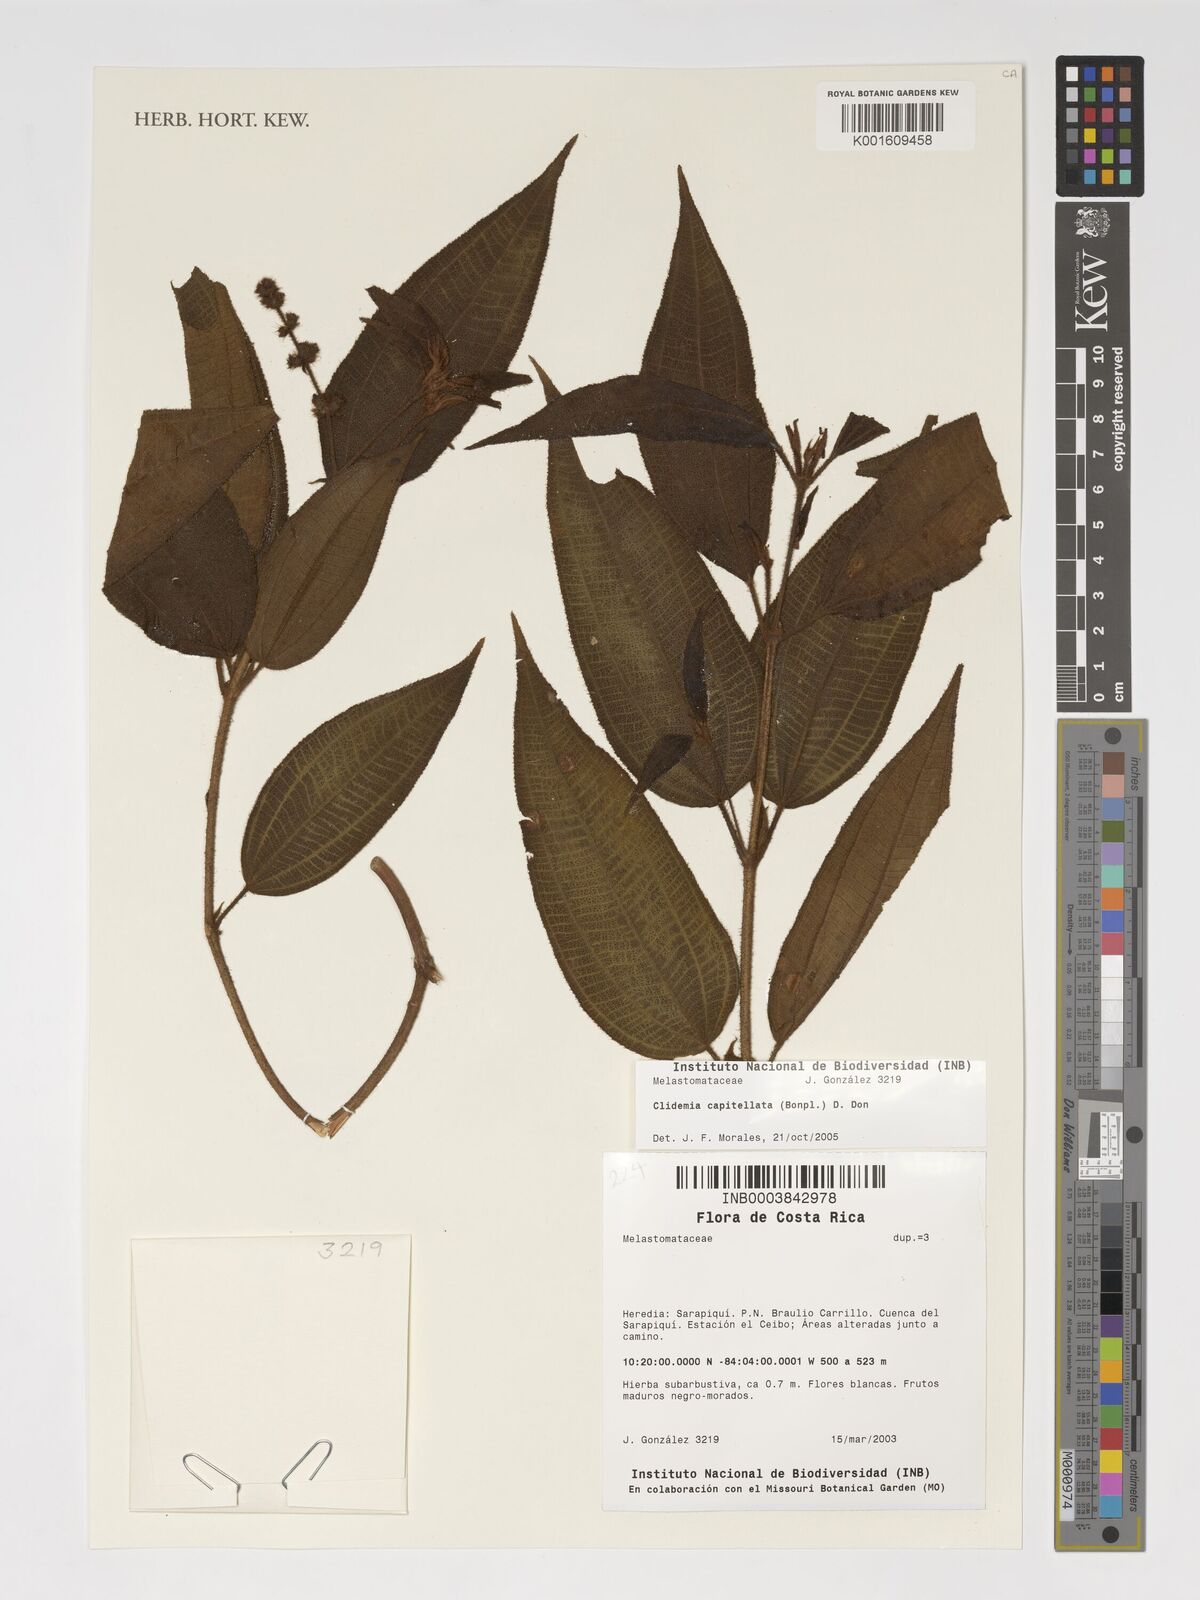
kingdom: Plantae
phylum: Tracheophyta
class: Magnoliopsida
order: Myrtales
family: Melastomataceae
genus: Miconia
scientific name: Miconia dependens
